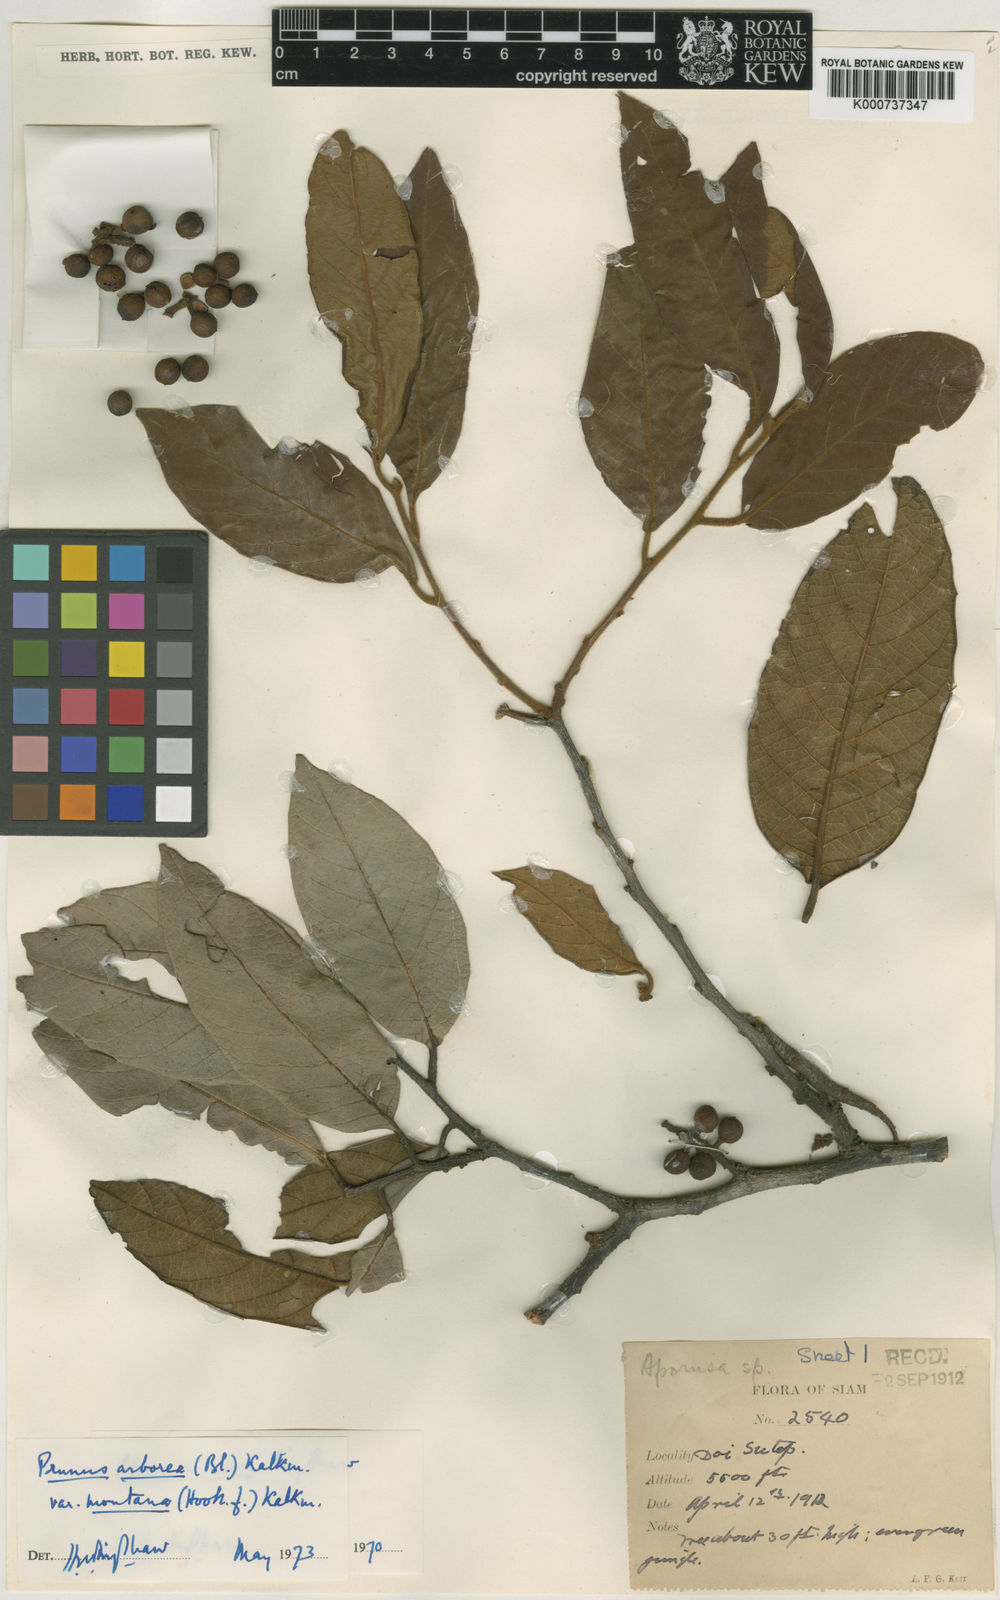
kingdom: Plantae
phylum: Tracheophyta
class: Magnoliopsida
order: Rosales
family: Rosaceae
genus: Prunus
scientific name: Prunus arborea
